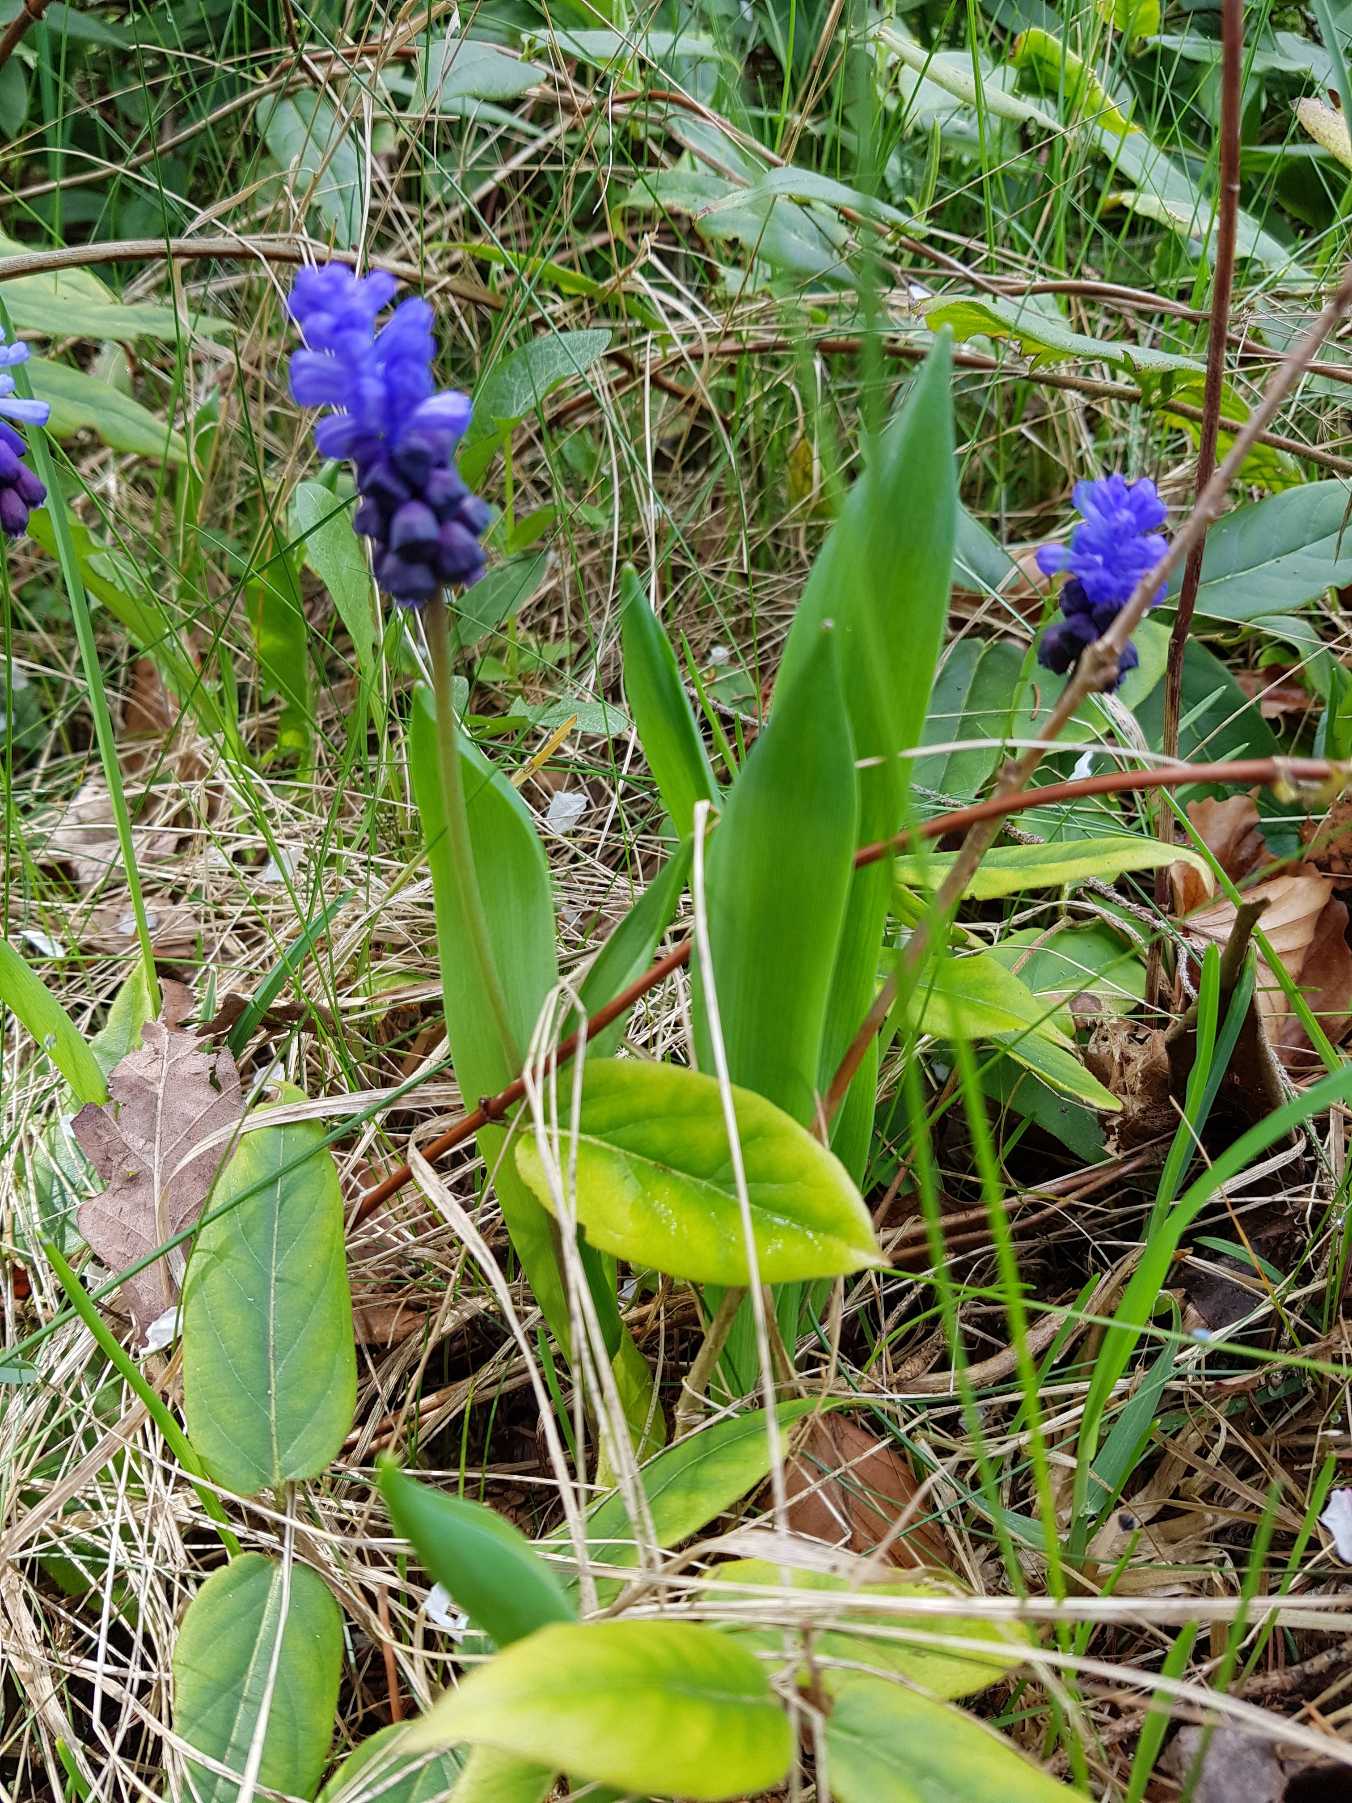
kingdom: Plantae
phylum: Tracheophyta
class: Liliopsida
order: Asparagales
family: Asparagaceae
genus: Muscari
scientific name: Muscari latifolium
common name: Bredbladet perlehyacint
